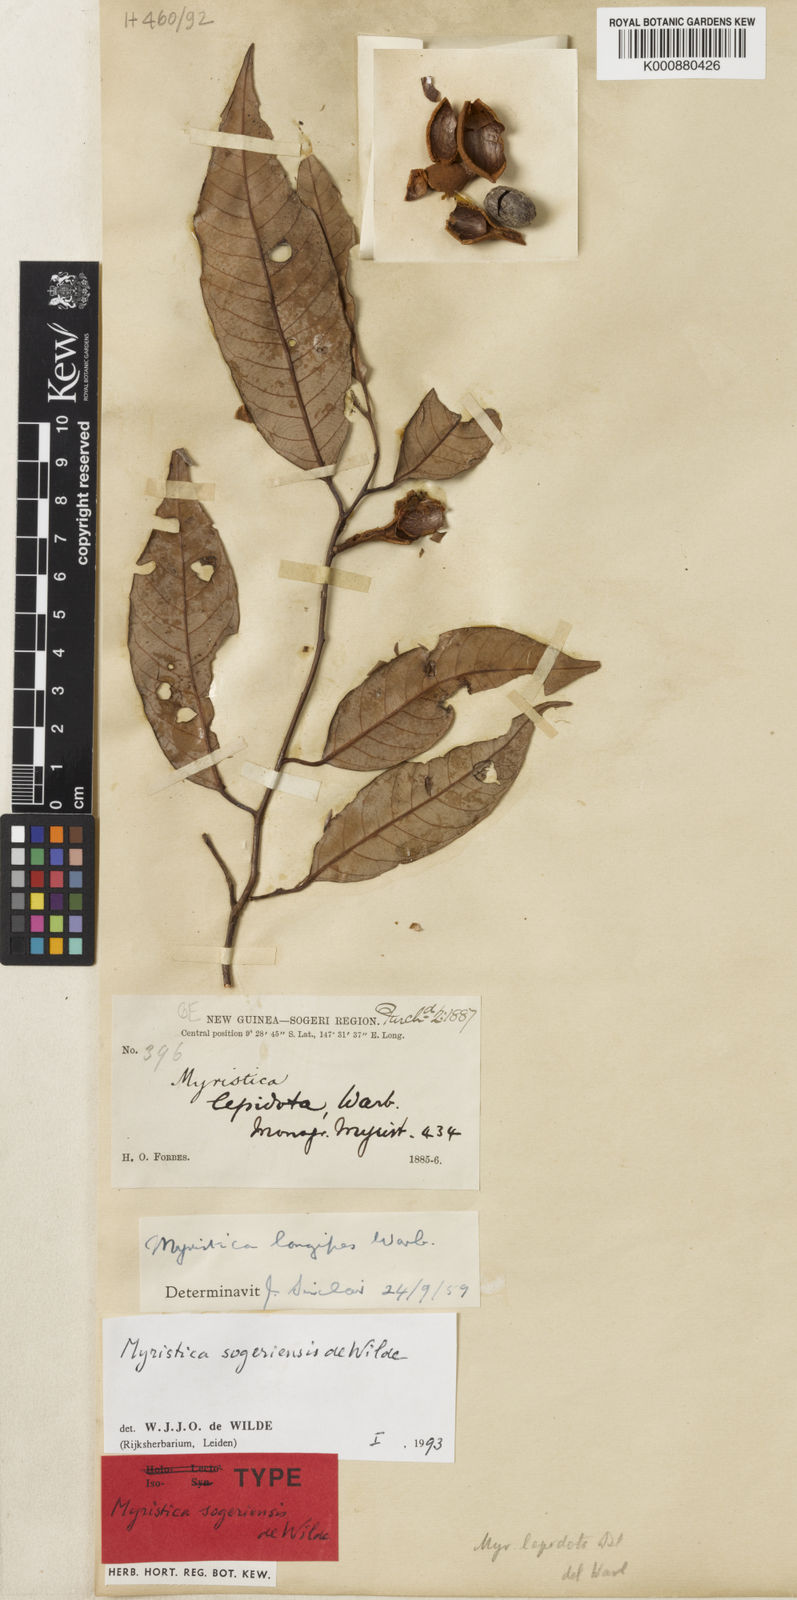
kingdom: Plantae
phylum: Tracheophyta
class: Magnoliopsida
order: Magnoliales
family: Myristicaceae
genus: Myristica
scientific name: Myristica sogeriensis
